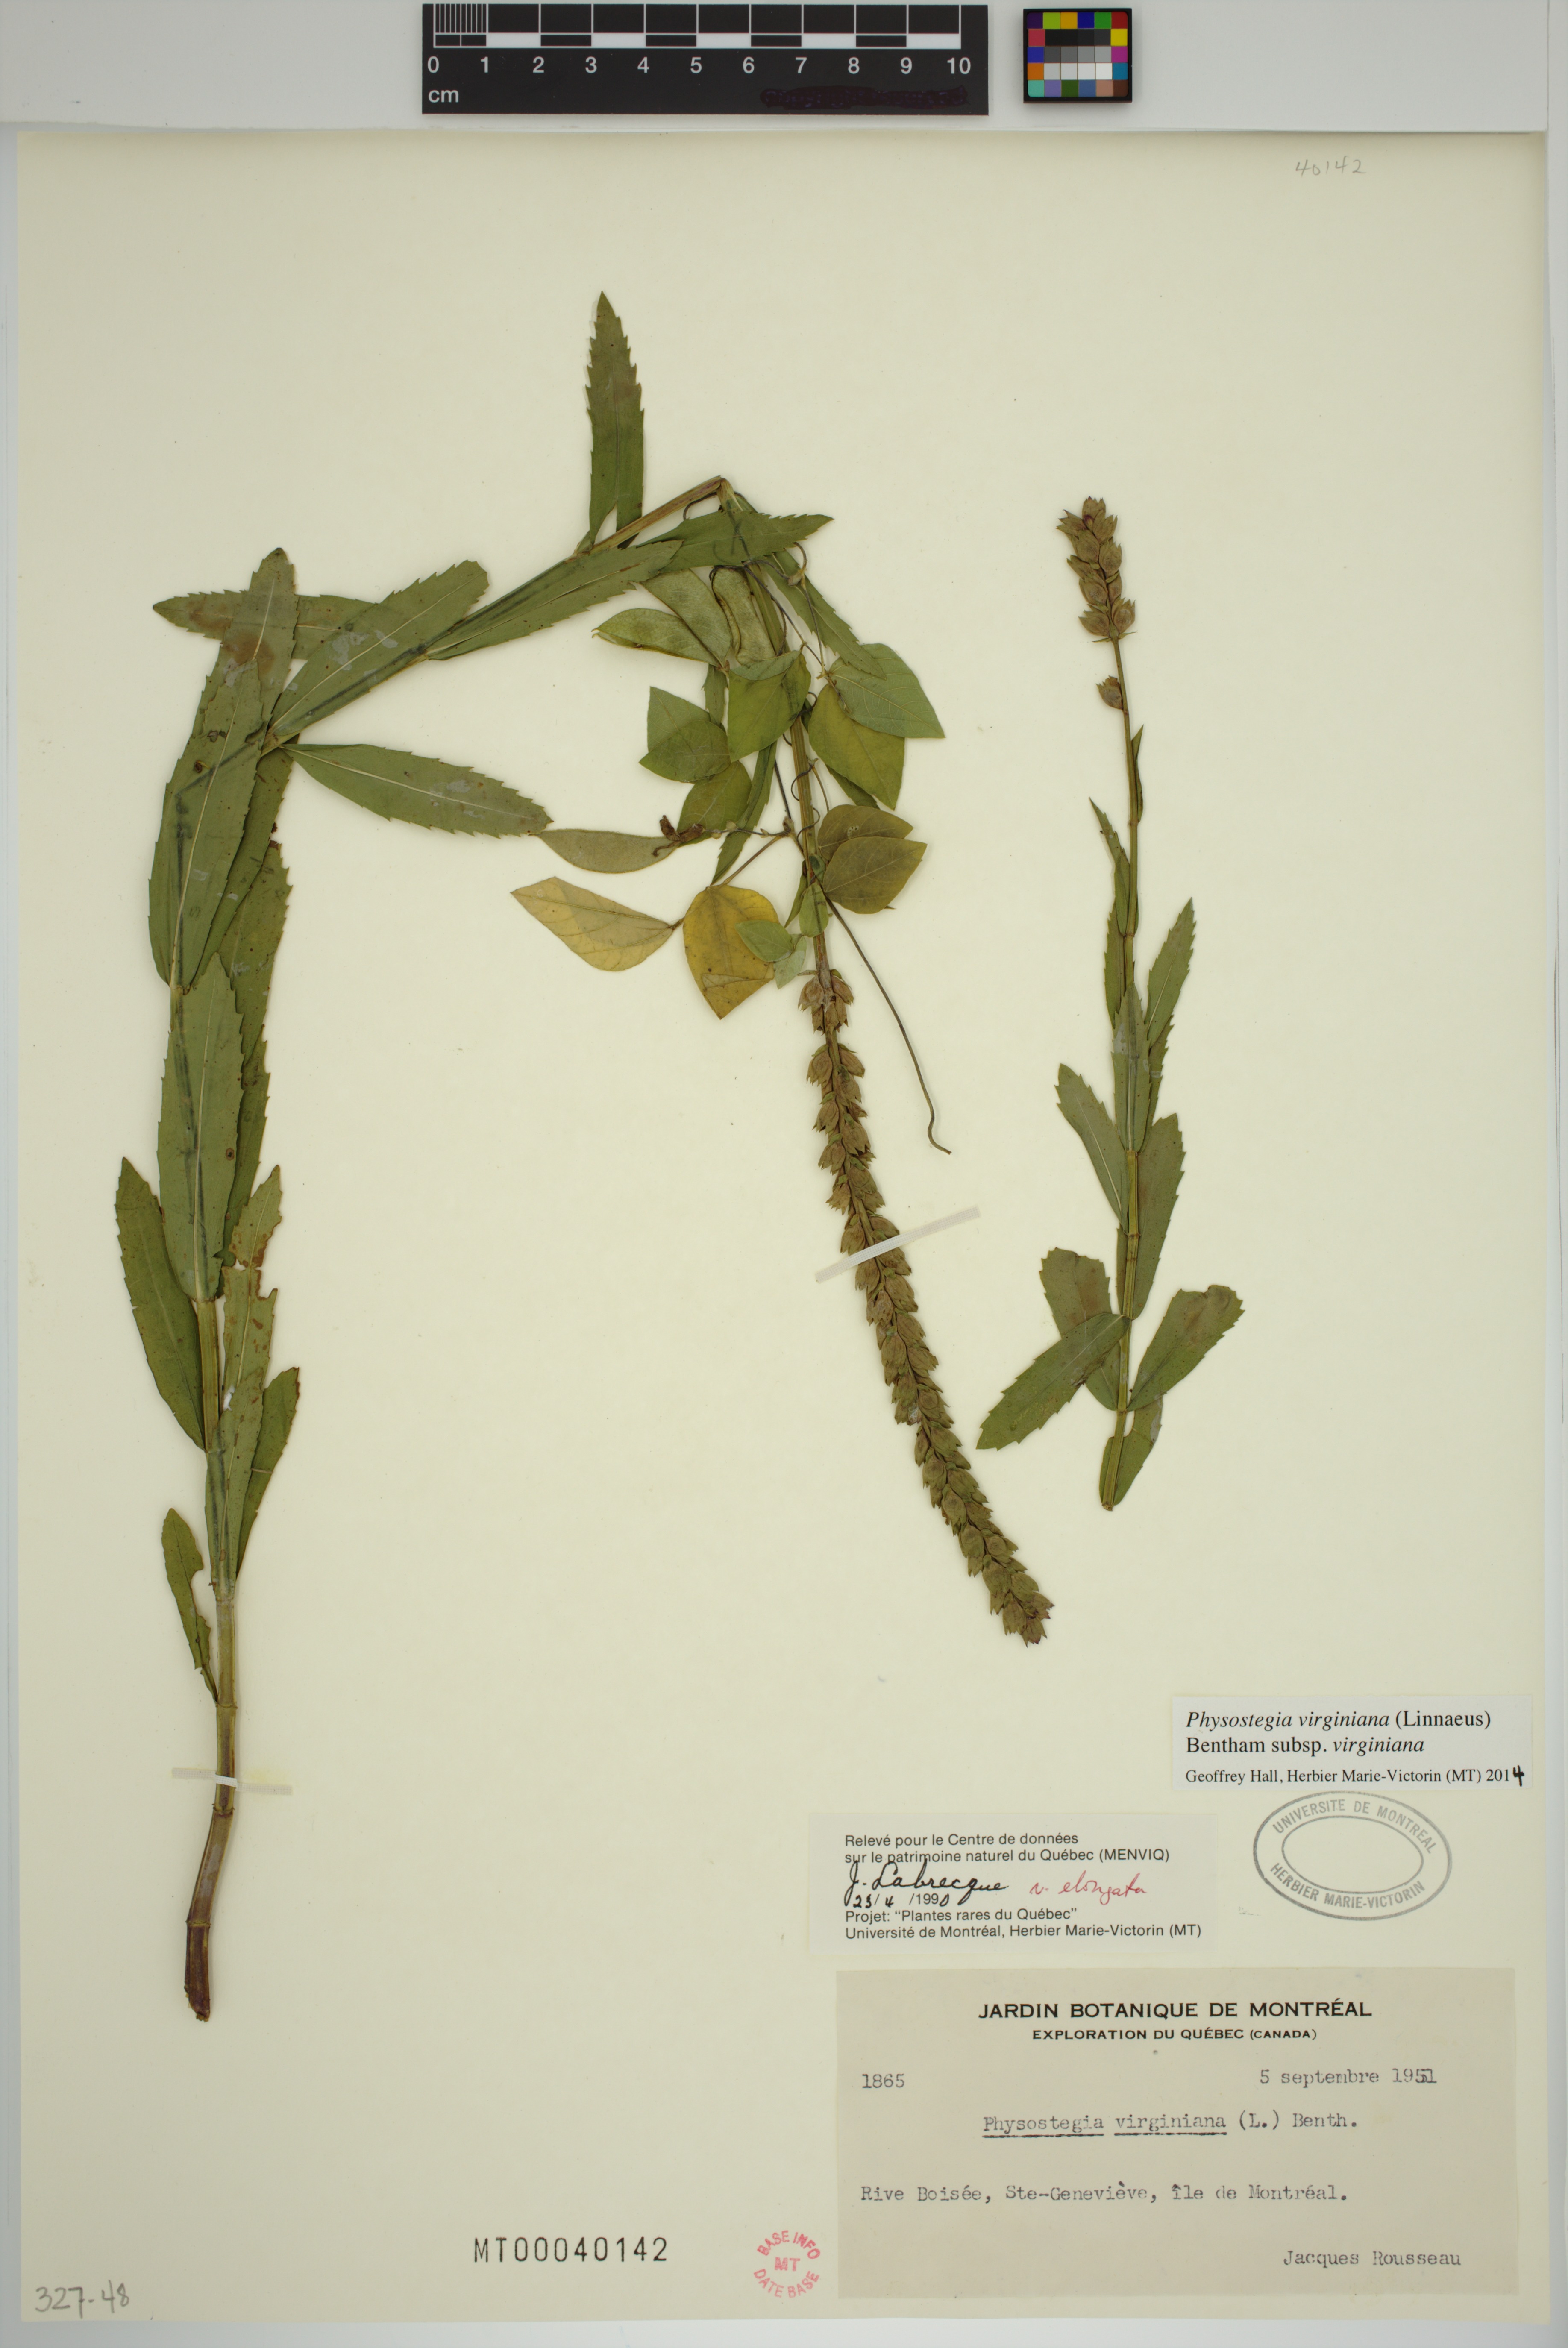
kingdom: Plantae
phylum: Tracheophyta
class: Magnoliopsida
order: Lamiales
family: Lamiaceae
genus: Physostegia
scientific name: Physostegia virginiana
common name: Obedient-plant
